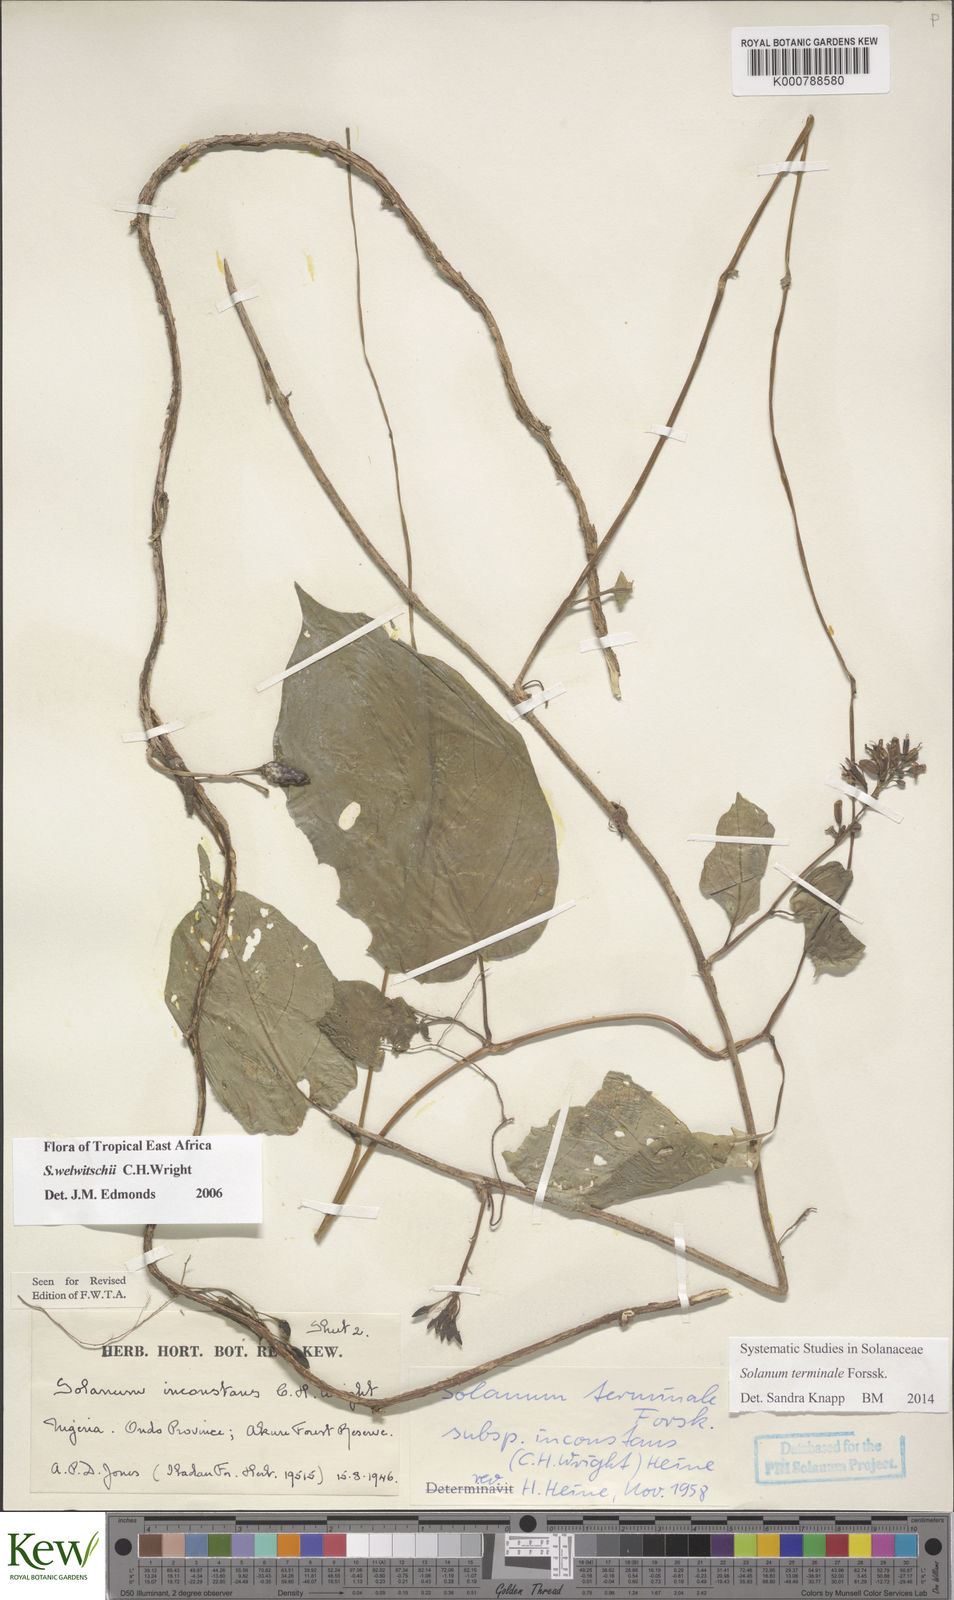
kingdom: Plantae
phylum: Tracheophyta
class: Magnoliopsida
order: Solanales
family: Solanaceae
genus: Solanum
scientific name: Solanum terminale
